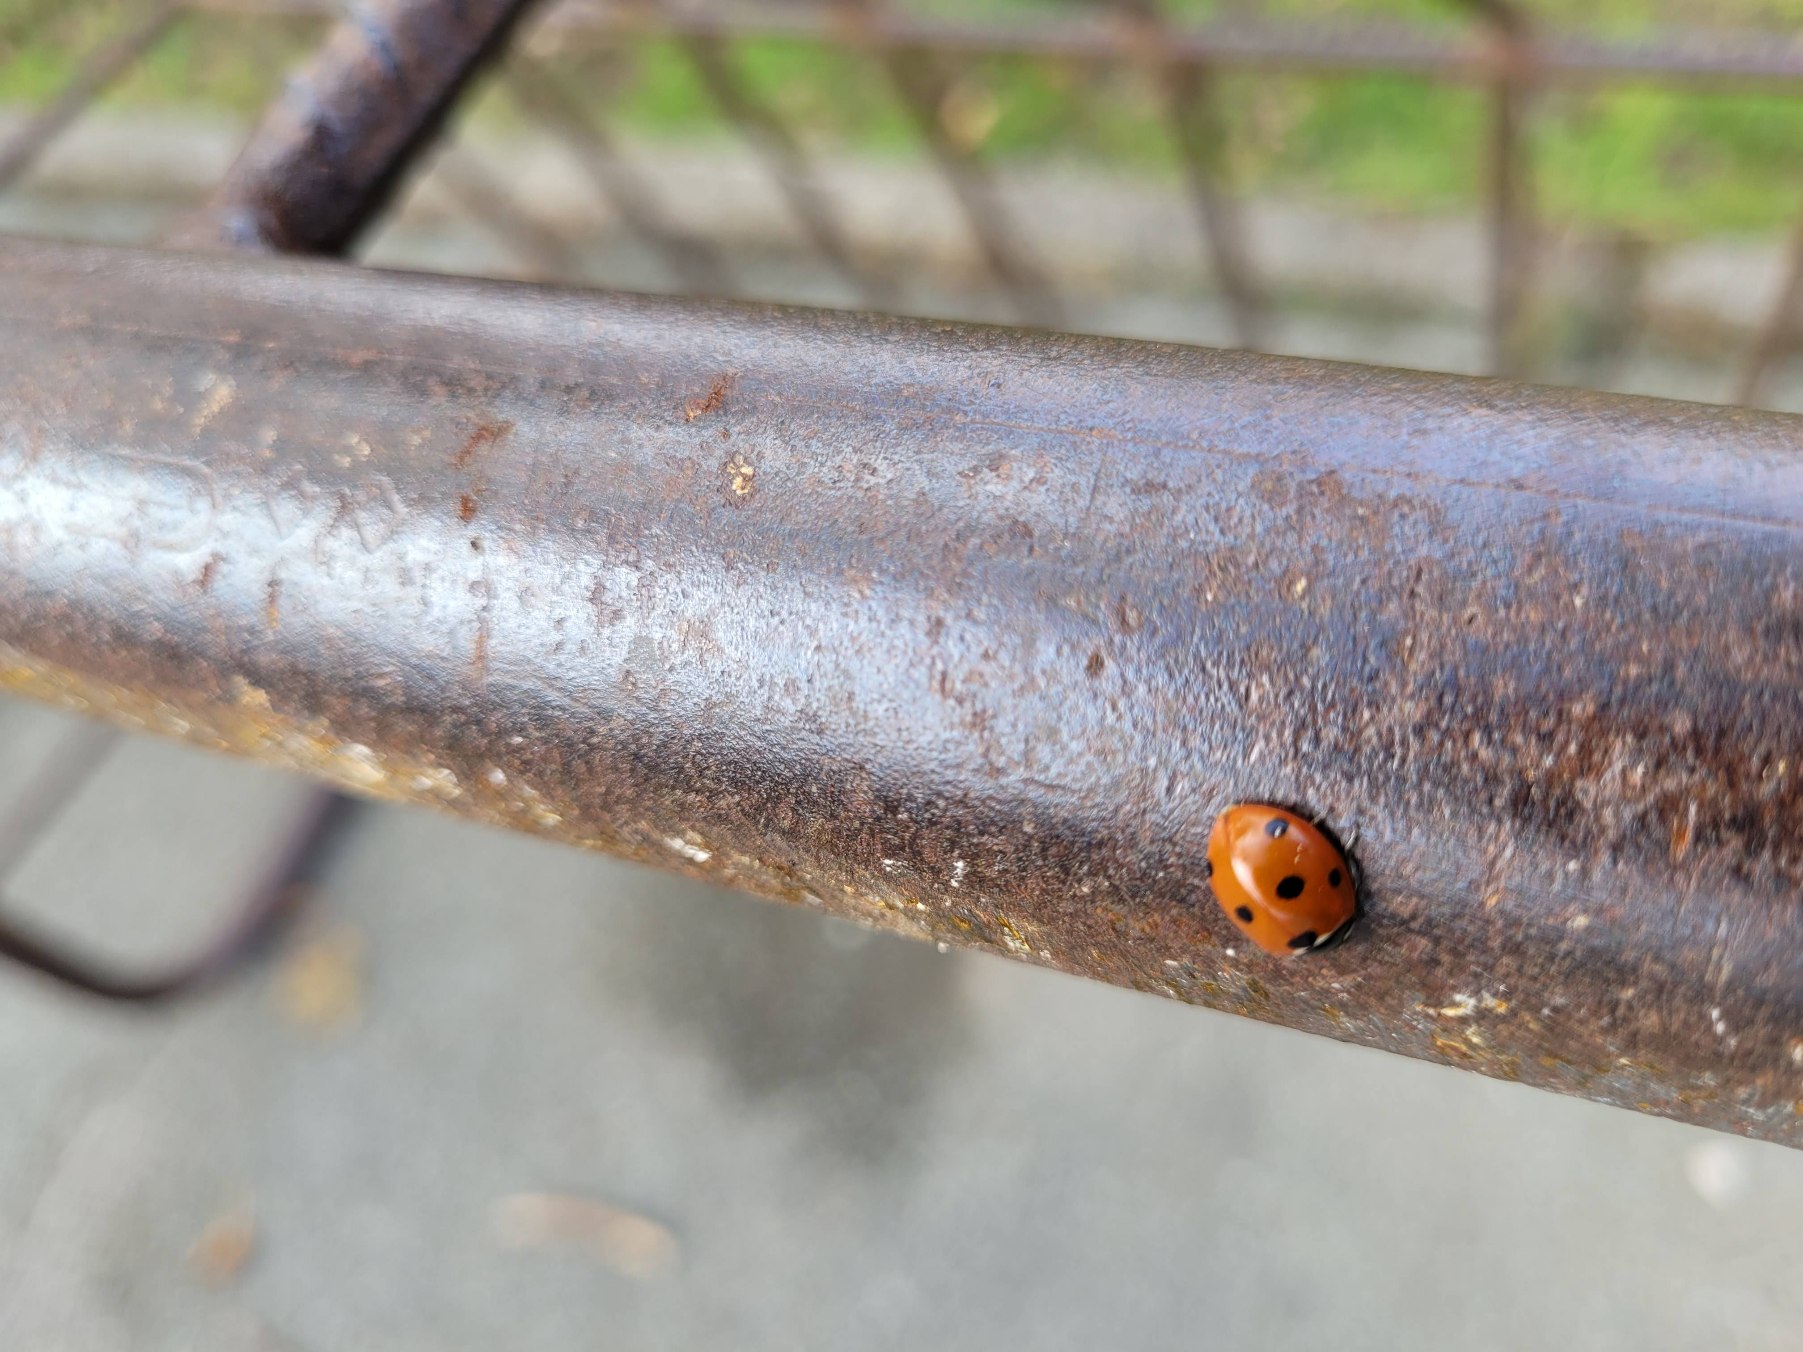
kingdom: Animalia
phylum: Arthropoda
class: Insecta
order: Coleoptera
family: Coccinellidae
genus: Coccinella
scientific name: Coccinella septempunctata
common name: Syvplettet mariehøne
